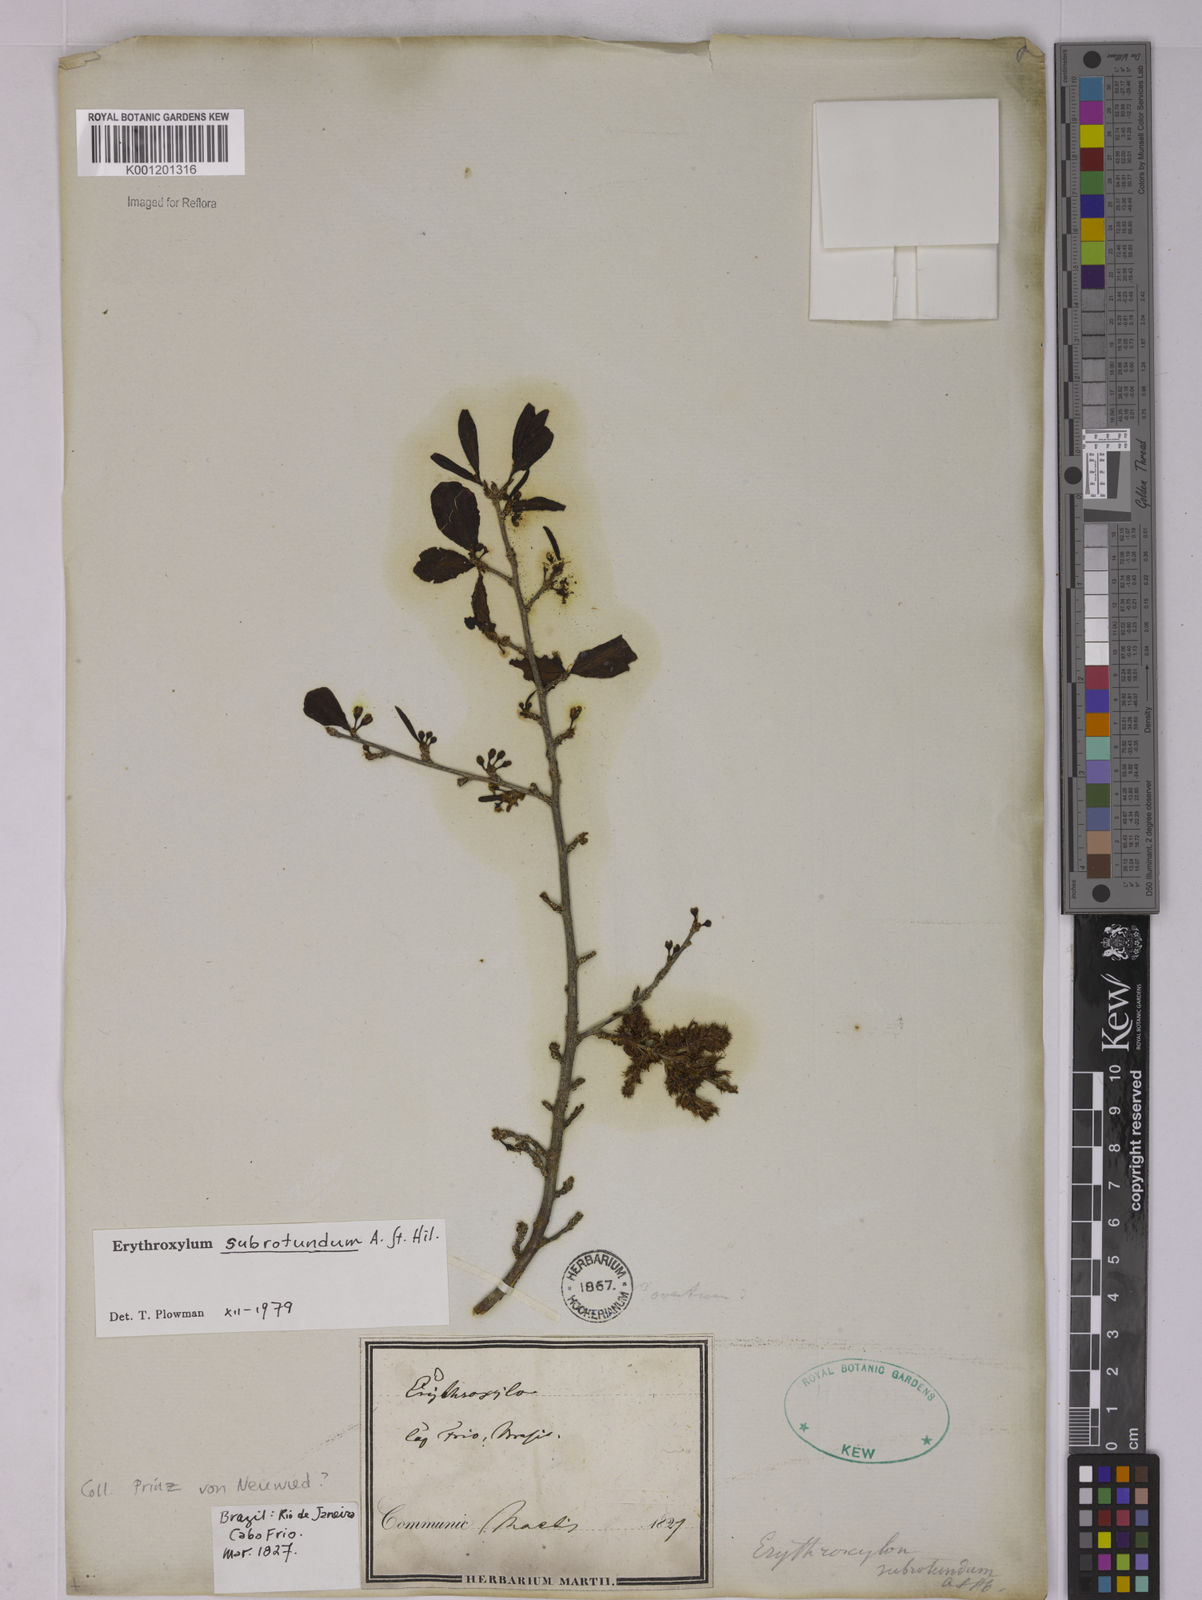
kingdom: Plantae
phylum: Tracheophyta
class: Magnoliopsida
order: Malpighiales
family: Erythroxylaceae
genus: Erythroxylum
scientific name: Erythroxylum subrotundum
